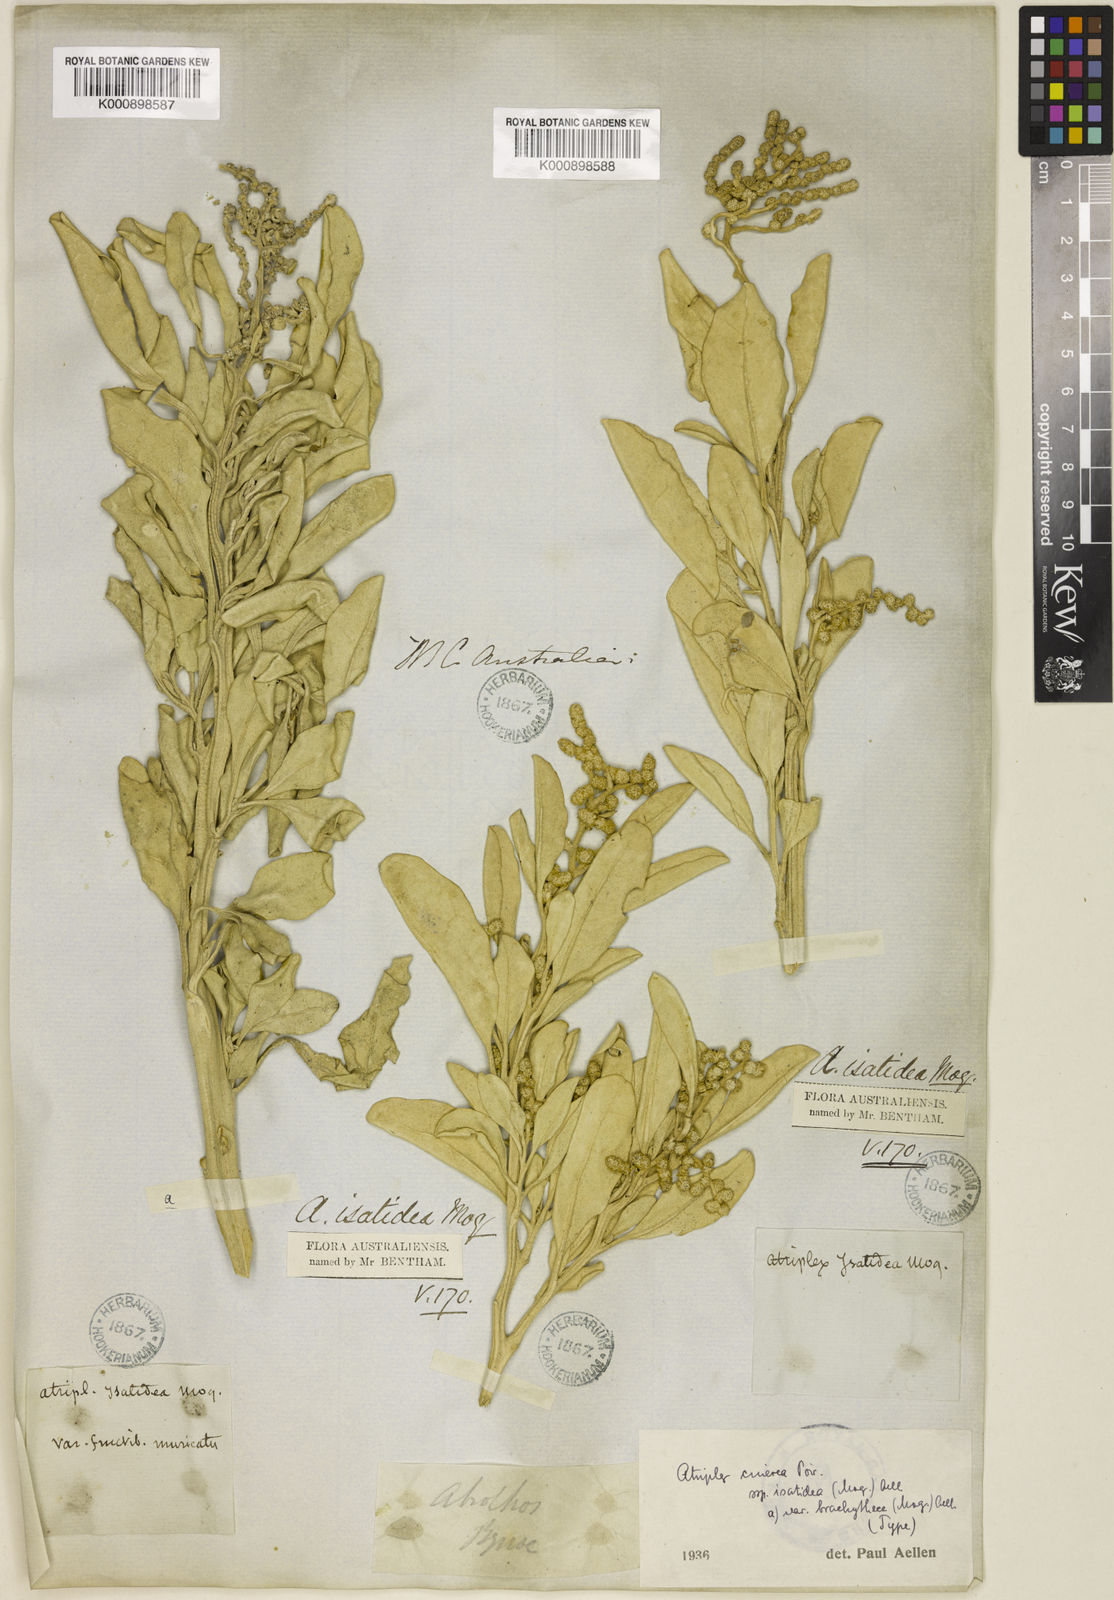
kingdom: Plantae
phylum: Tracheophyta
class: Magnoliopsida
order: Caryophyllales
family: Amaranthaceae
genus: Atriplex
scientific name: Atriplex cinerea
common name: Grey saltbush
